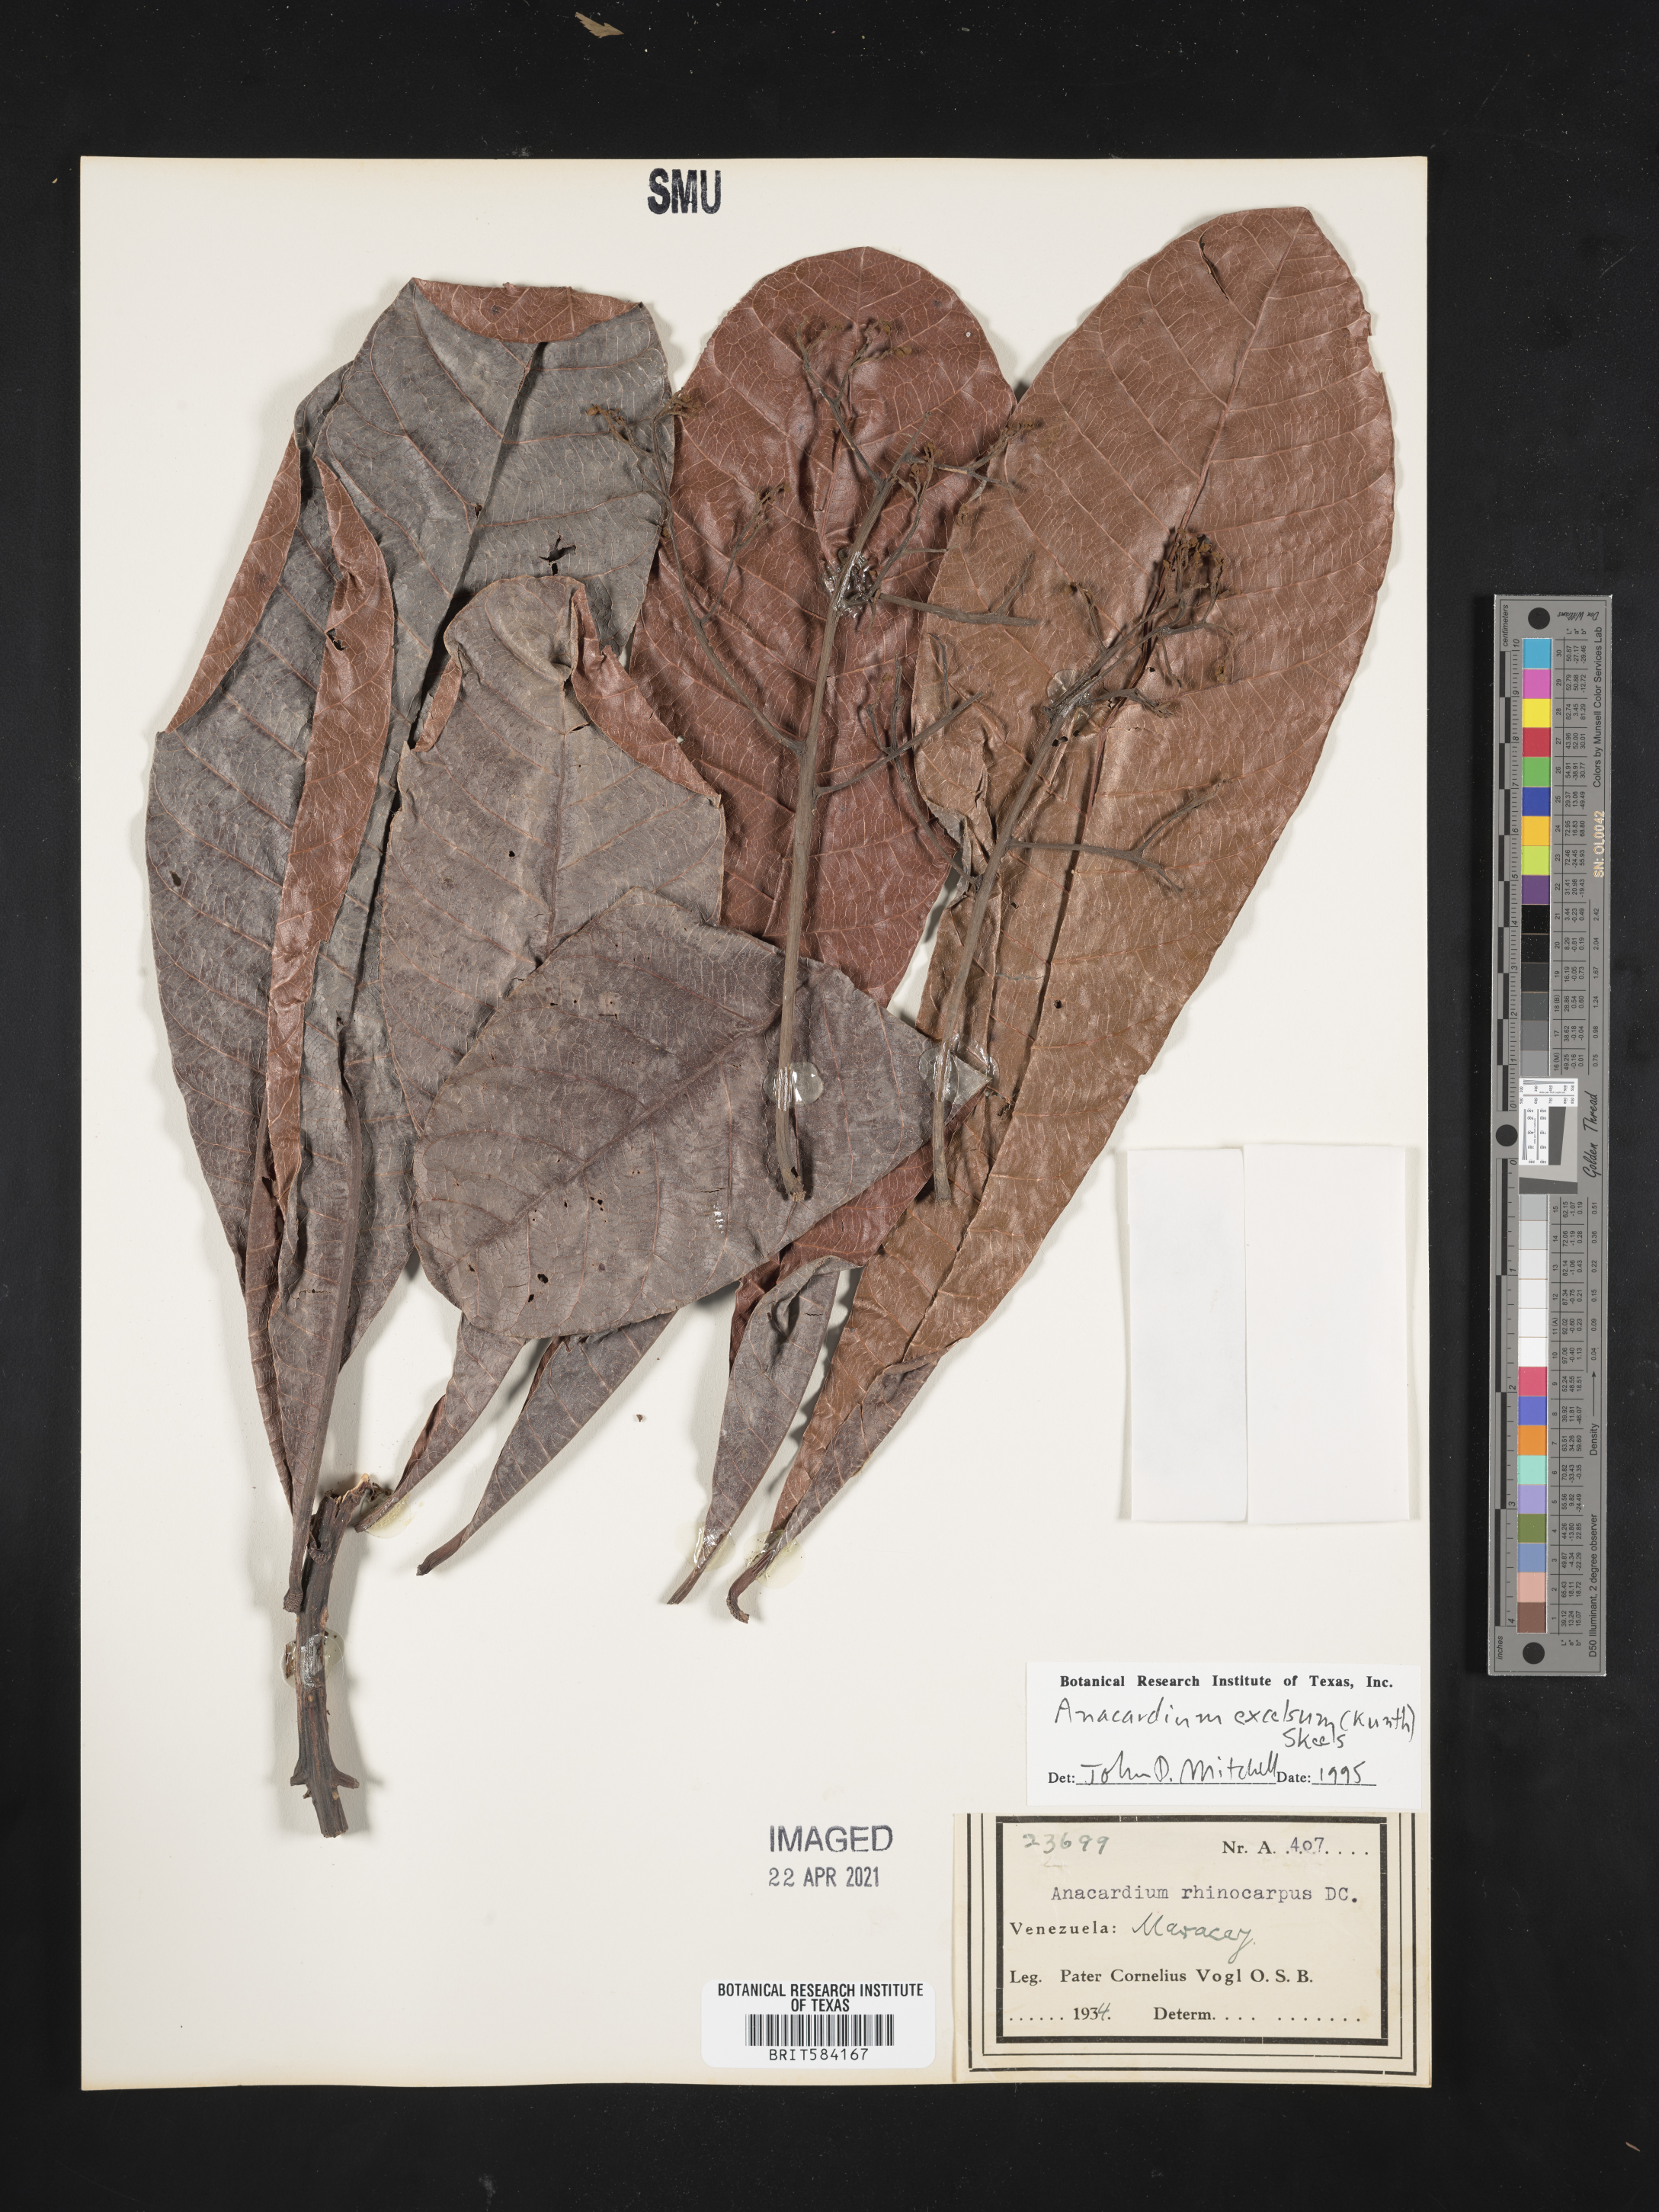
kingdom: Plantae
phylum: Tracheophyta
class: Magnoliopsida
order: Sapindales
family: Anacardiaceae
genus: Anacardium
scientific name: Anacardium excelsum
